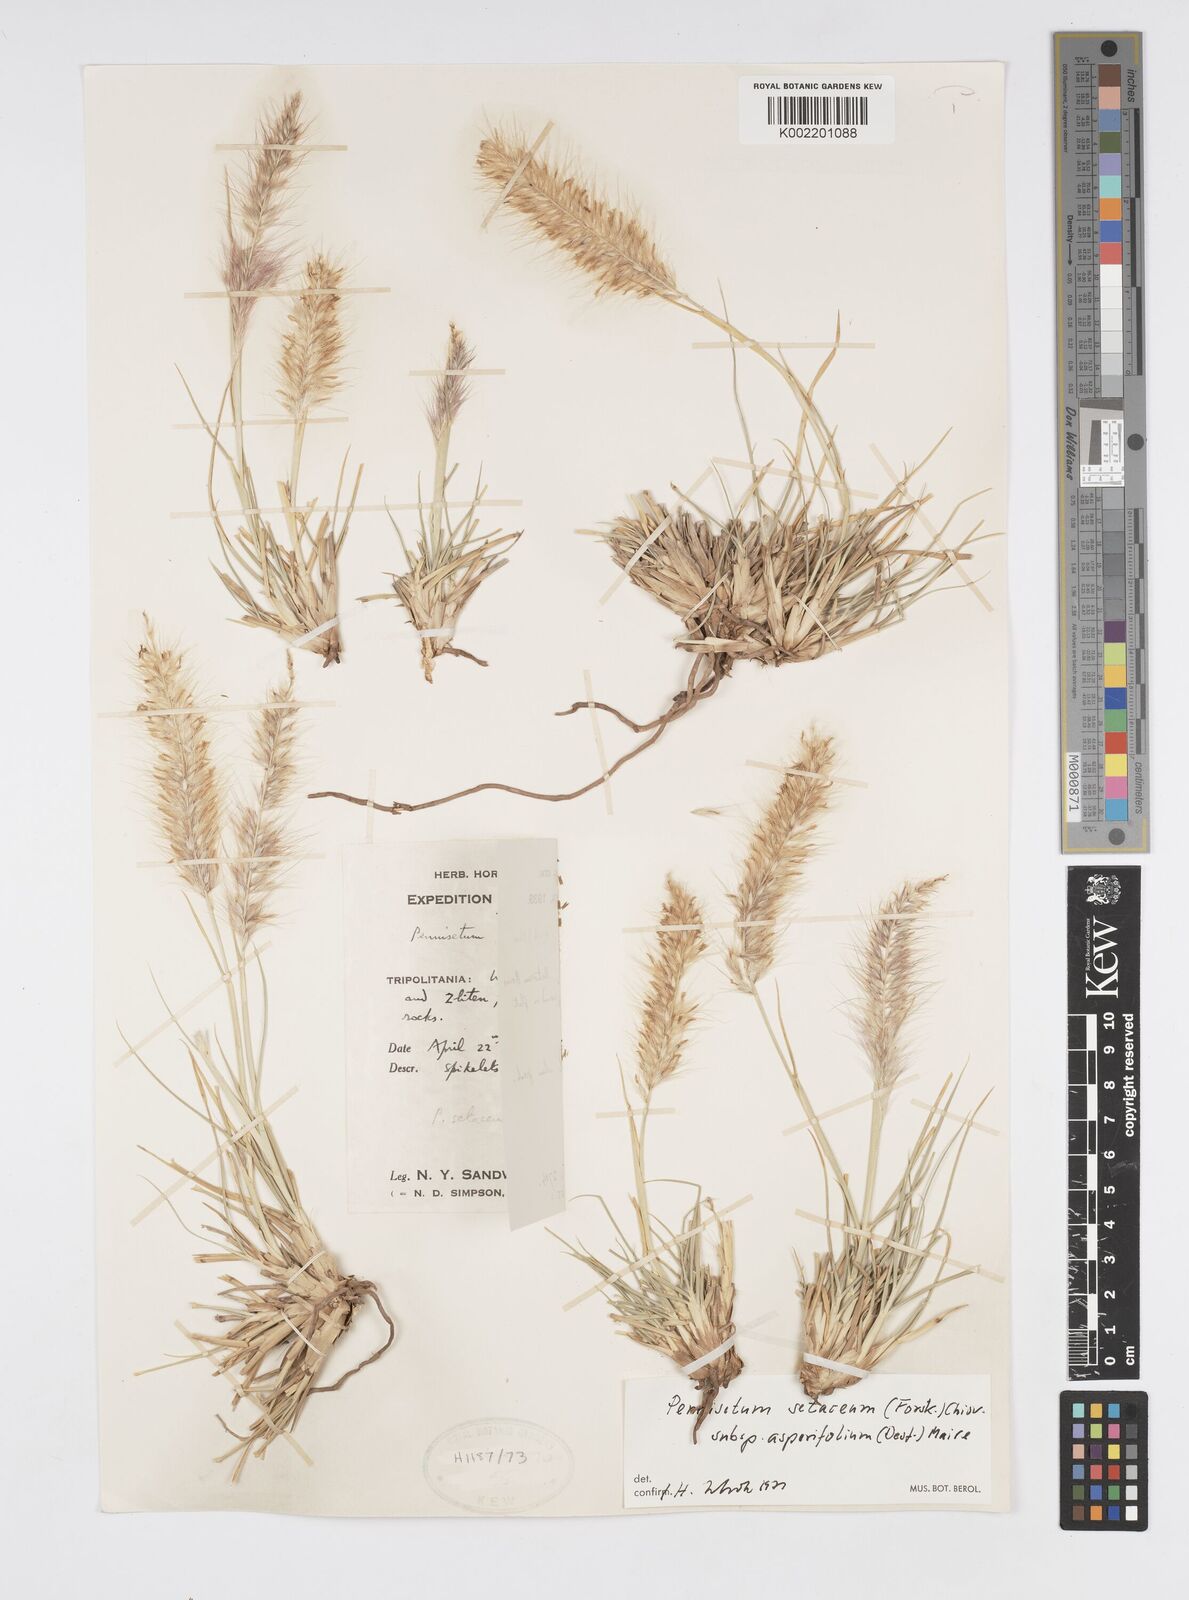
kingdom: Plantae
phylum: Tracheophyta
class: Liliopsida
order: Poales
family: Poaceae
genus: Cenchrus
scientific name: Cenchrus setaceus
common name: Crimson fountaingrass
